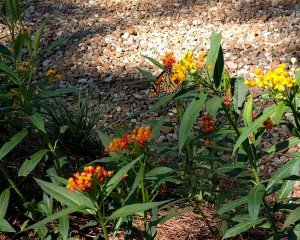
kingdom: Animalia
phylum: Arthropoda
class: Insecta
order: Lepidoptera
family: Nymphalidae
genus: Danaus
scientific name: Danaus plexippus
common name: Monarch
